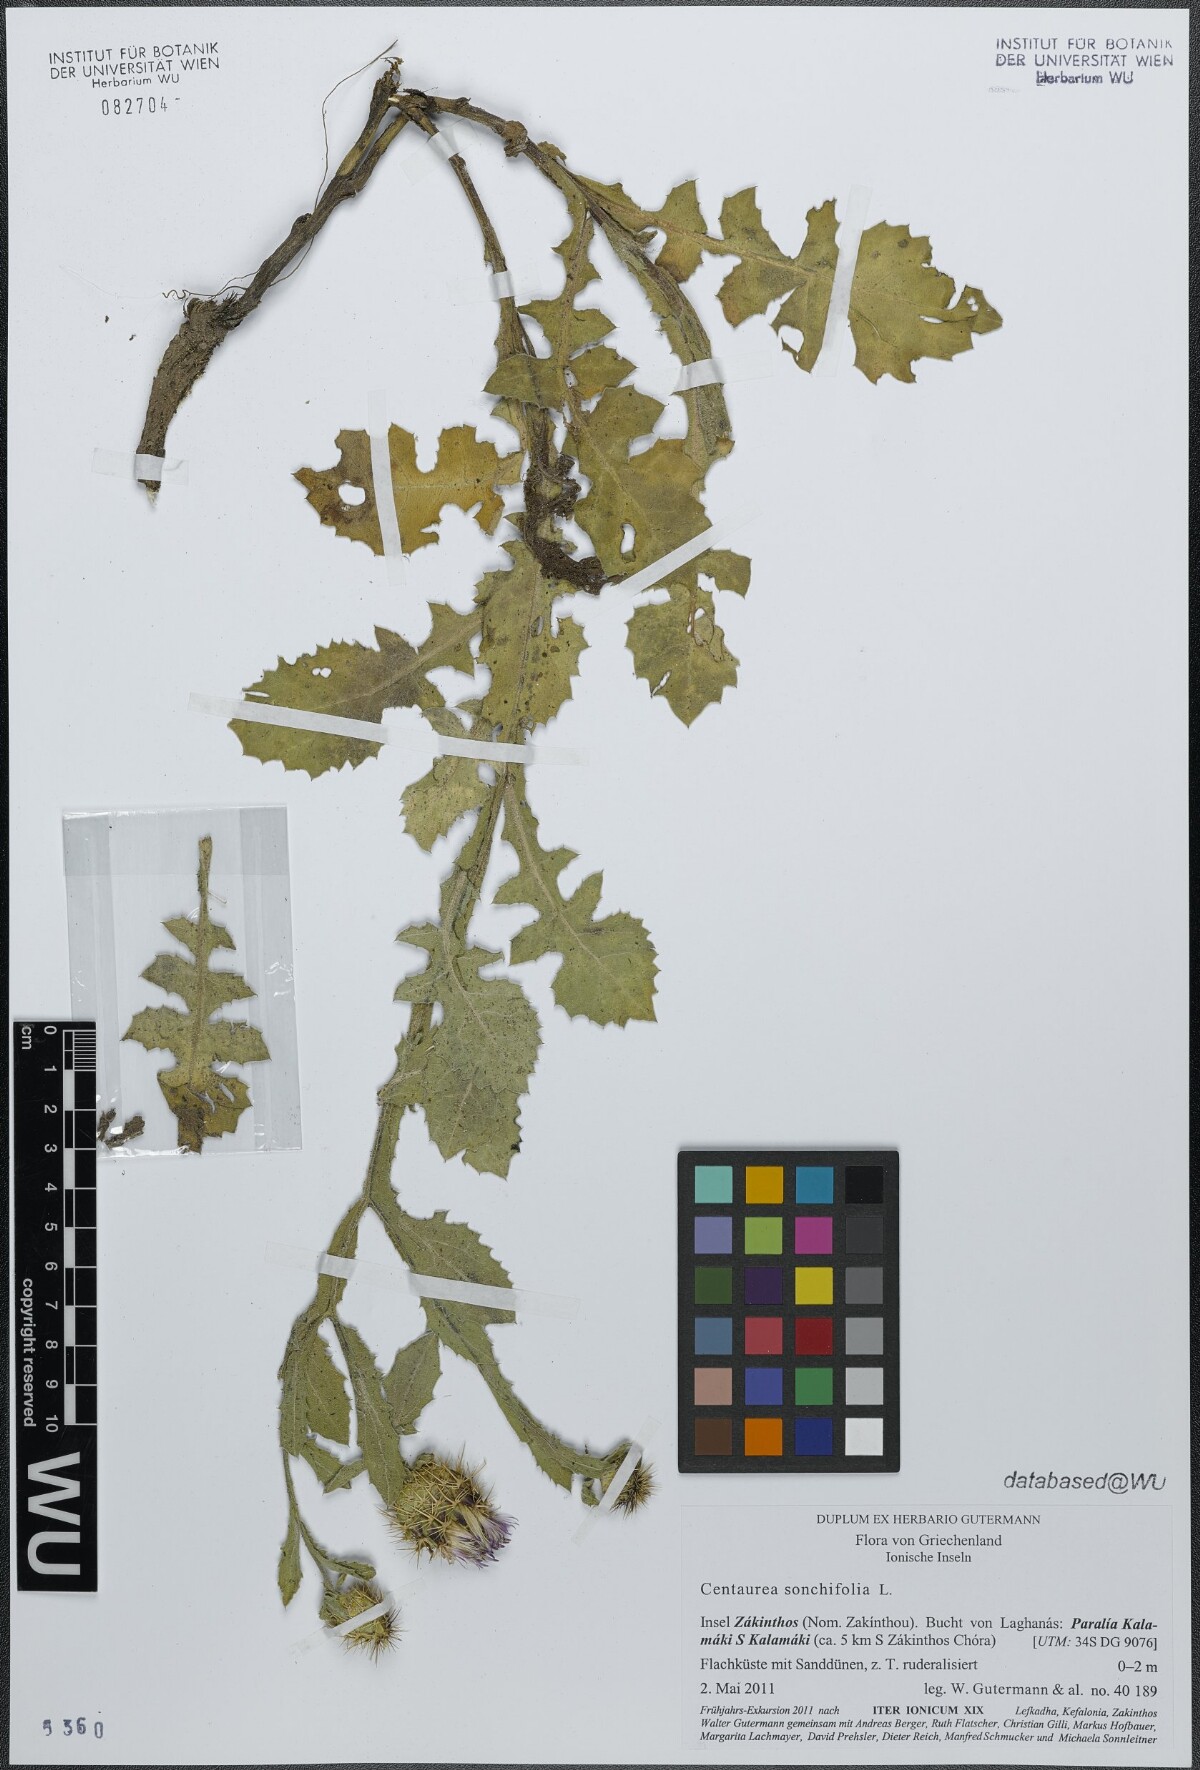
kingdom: Plantae
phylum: Tracheophyta
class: Magnoliopsida
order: Asterales
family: Asteraceae
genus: Centaurea
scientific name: Centaurea seridis
